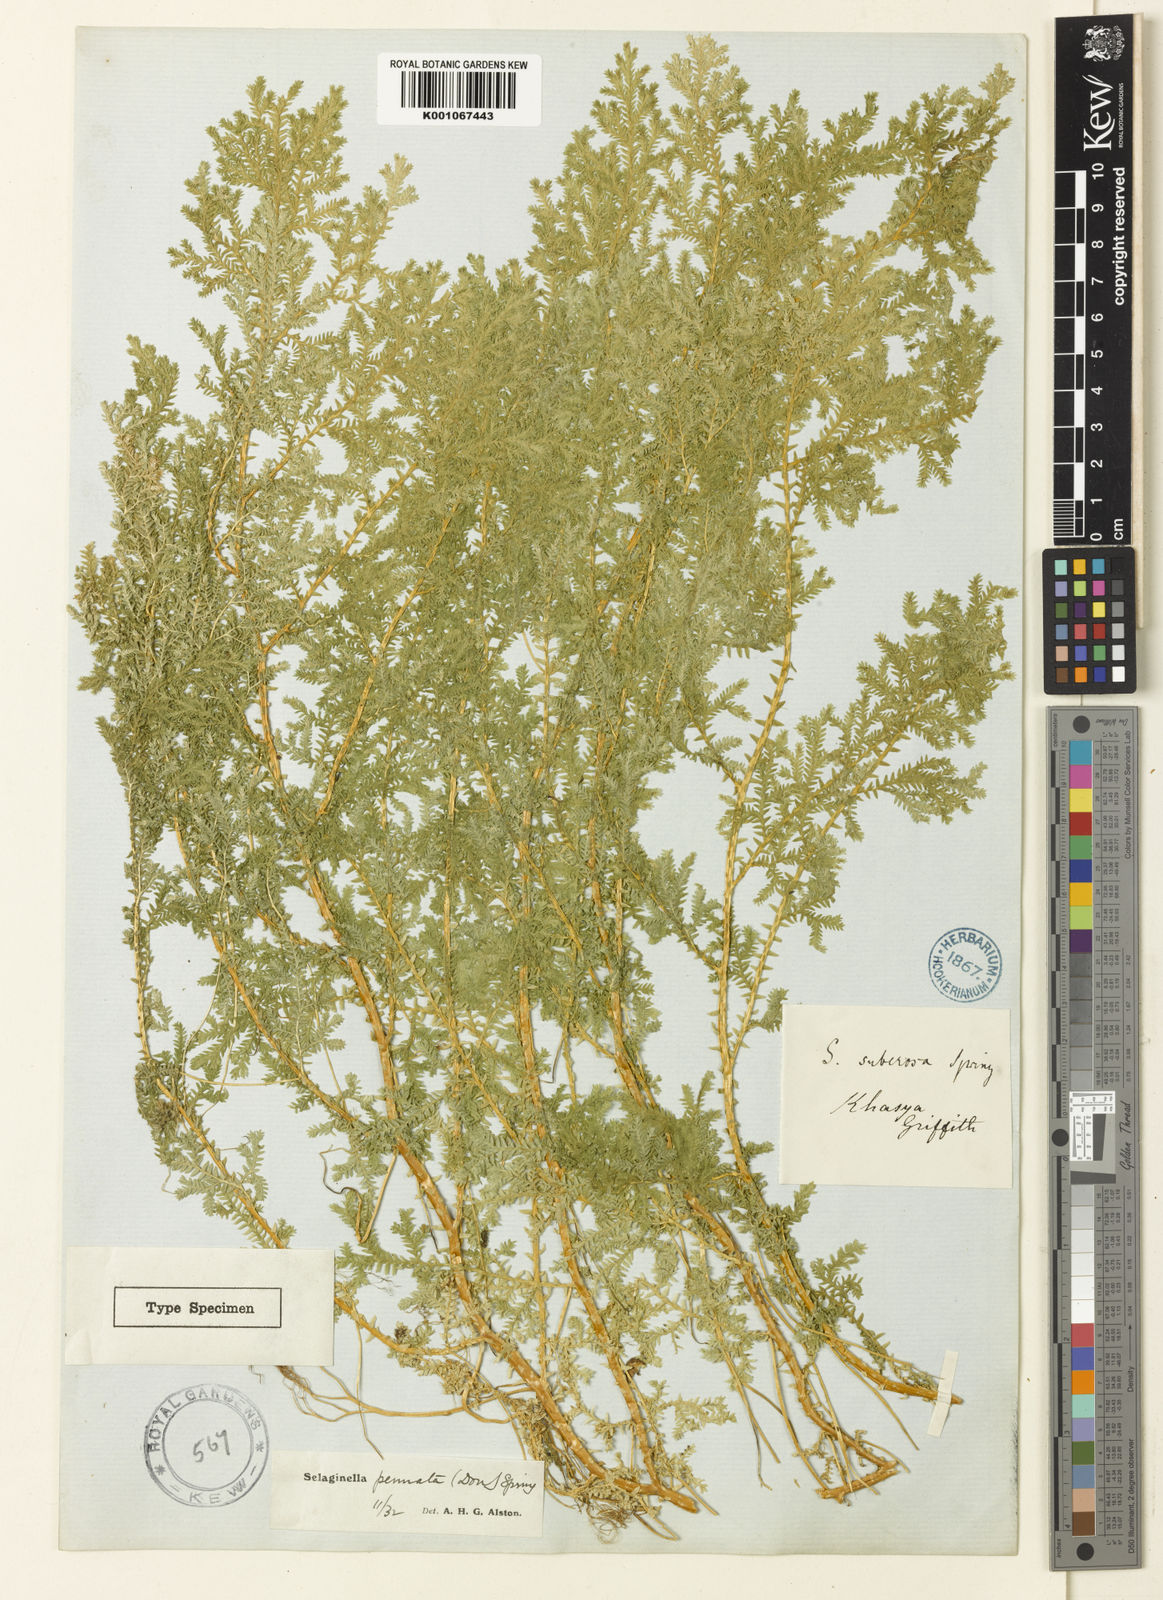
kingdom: Plantae
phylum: Tracheophyta
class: Lycopodiopsida
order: Selaginellales
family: Selaginellaceae
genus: Selaginella
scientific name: Selaginella pennata
